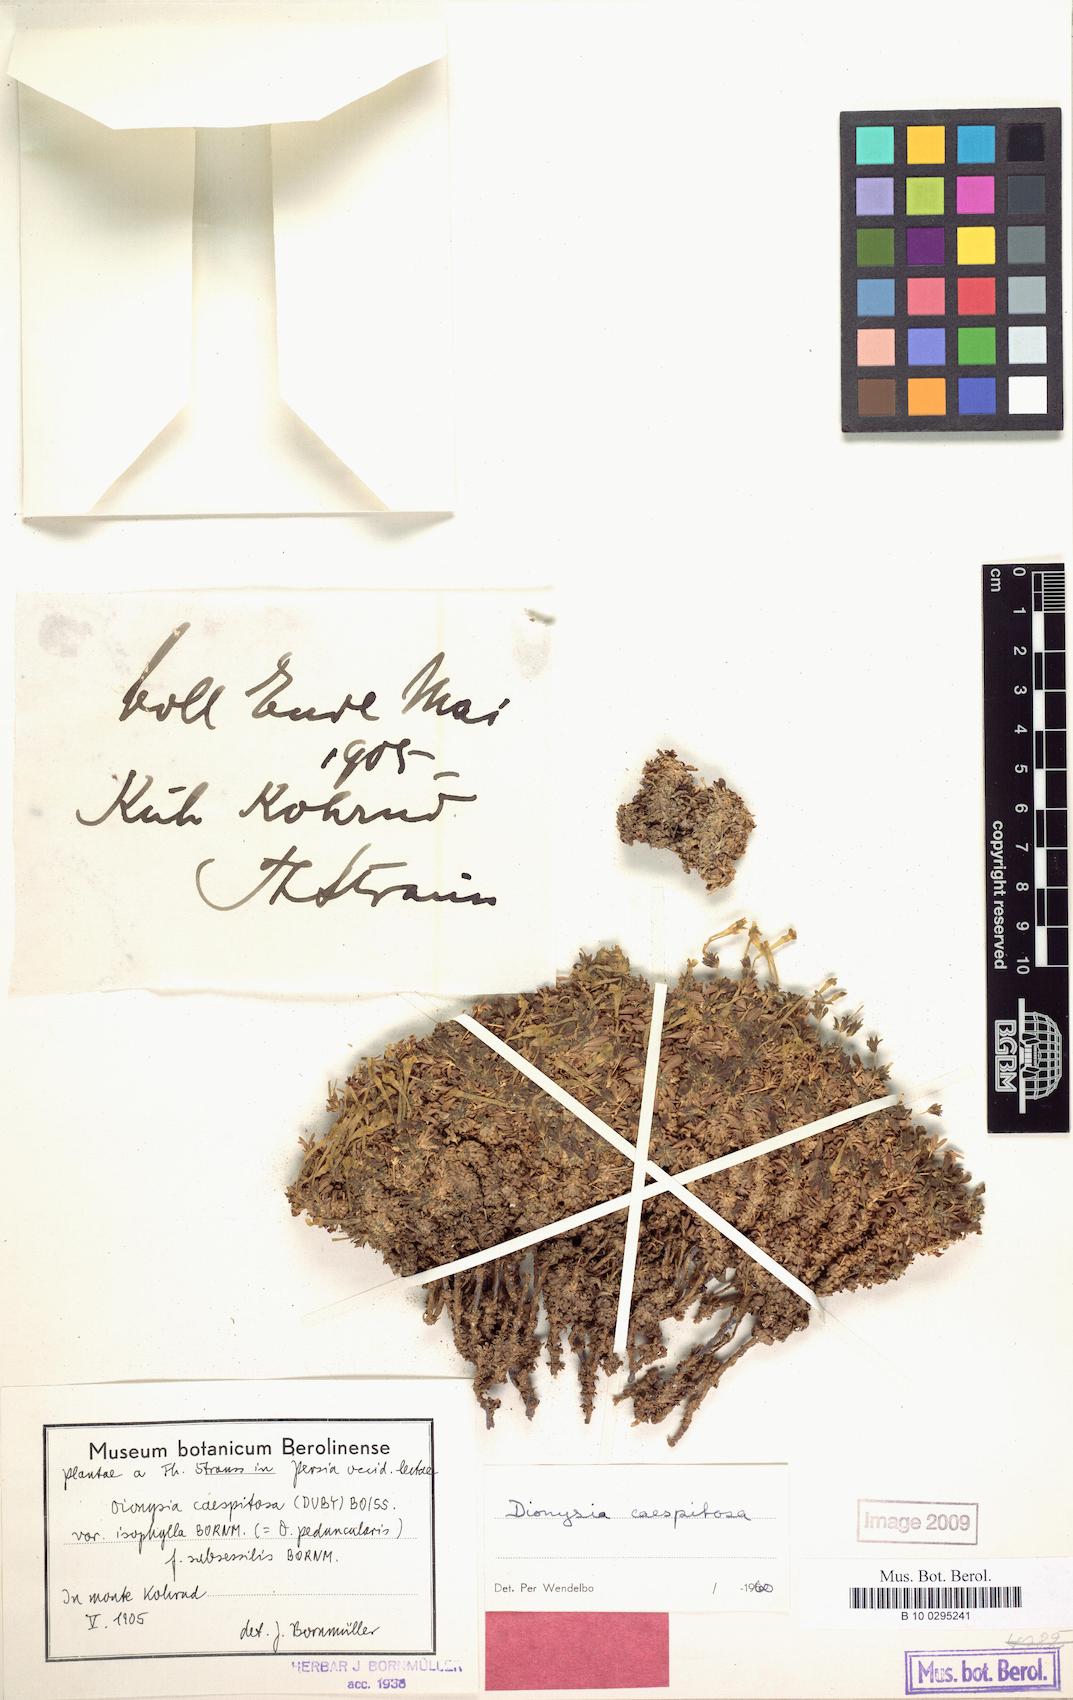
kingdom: Plantae
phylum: Tracheophyta
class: Magnoliopsida
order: Ericales
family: Primulaceae
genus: Dionysia
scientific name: Dionysia caespitosa
